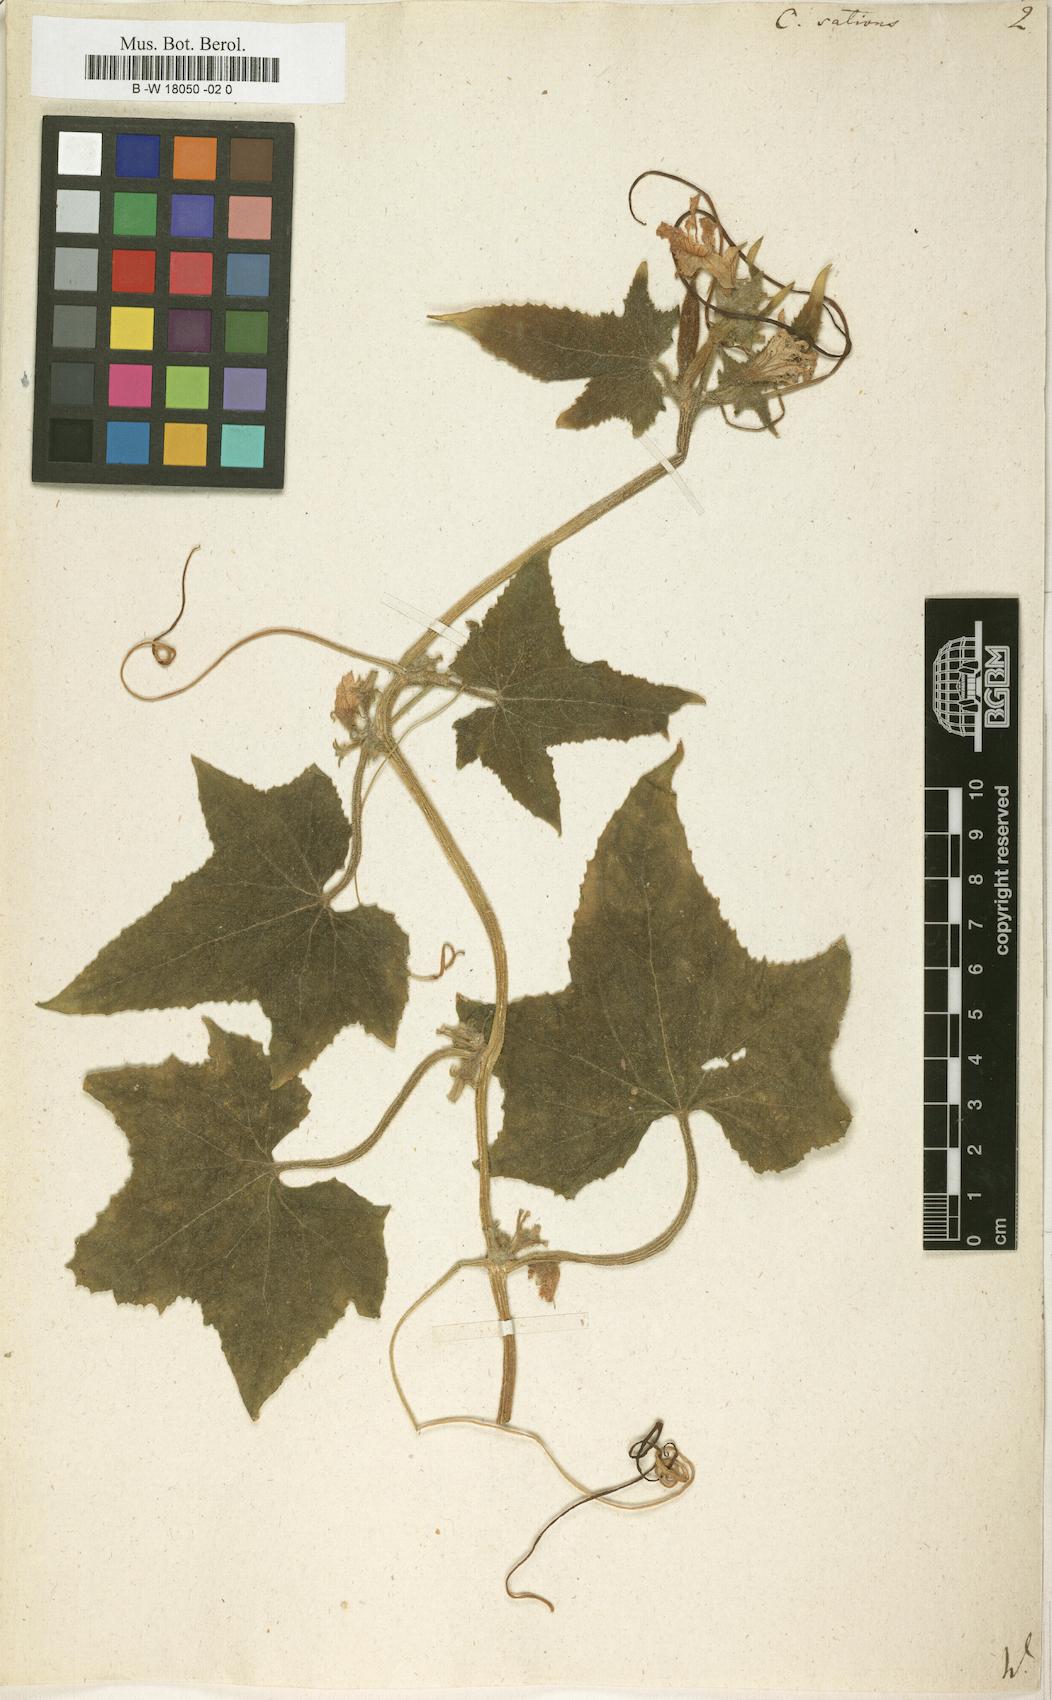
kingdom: Plantae
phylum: Tracheophyta
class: Magnoliopsida
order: Cucurbitales
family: Cucurbitaceae
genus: Cucumis
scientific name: Cucumis sativus
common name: Cucumber
